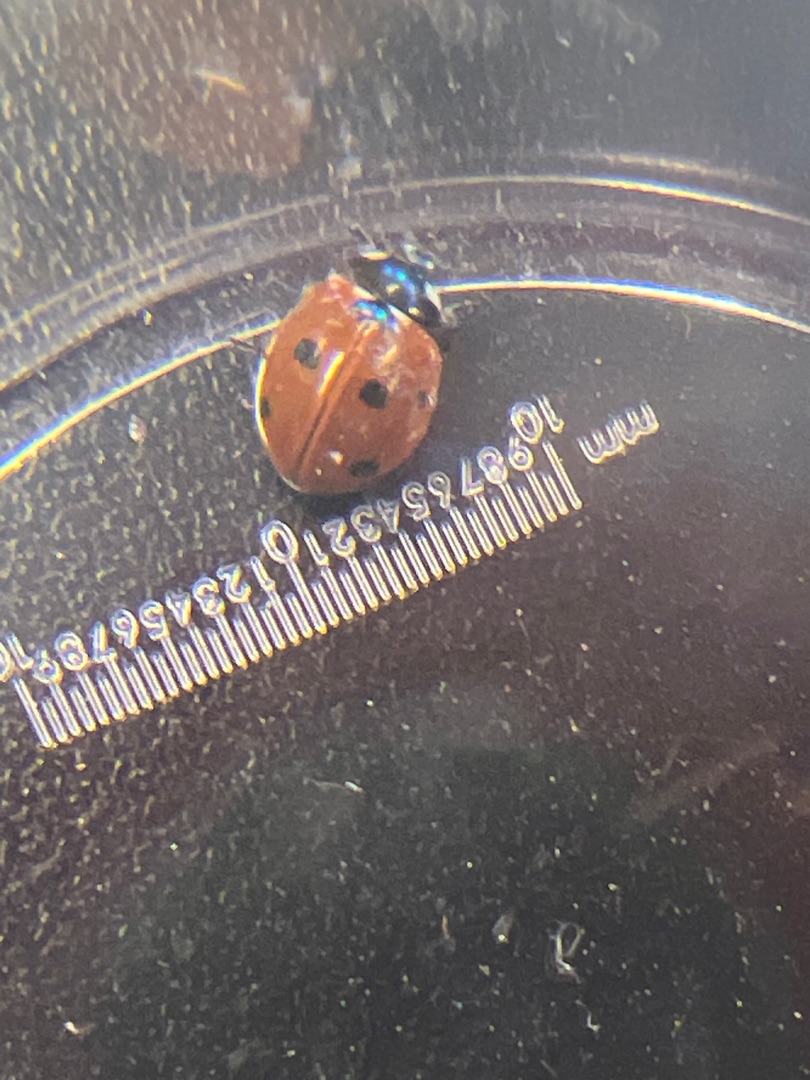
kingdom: Animalia
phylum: Arthropoda
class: Insecta
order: Coleoptera
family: Coccinellidae
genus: Coccinella
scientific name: Coccinella septempunctata
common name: Syvplettet mariehøne
